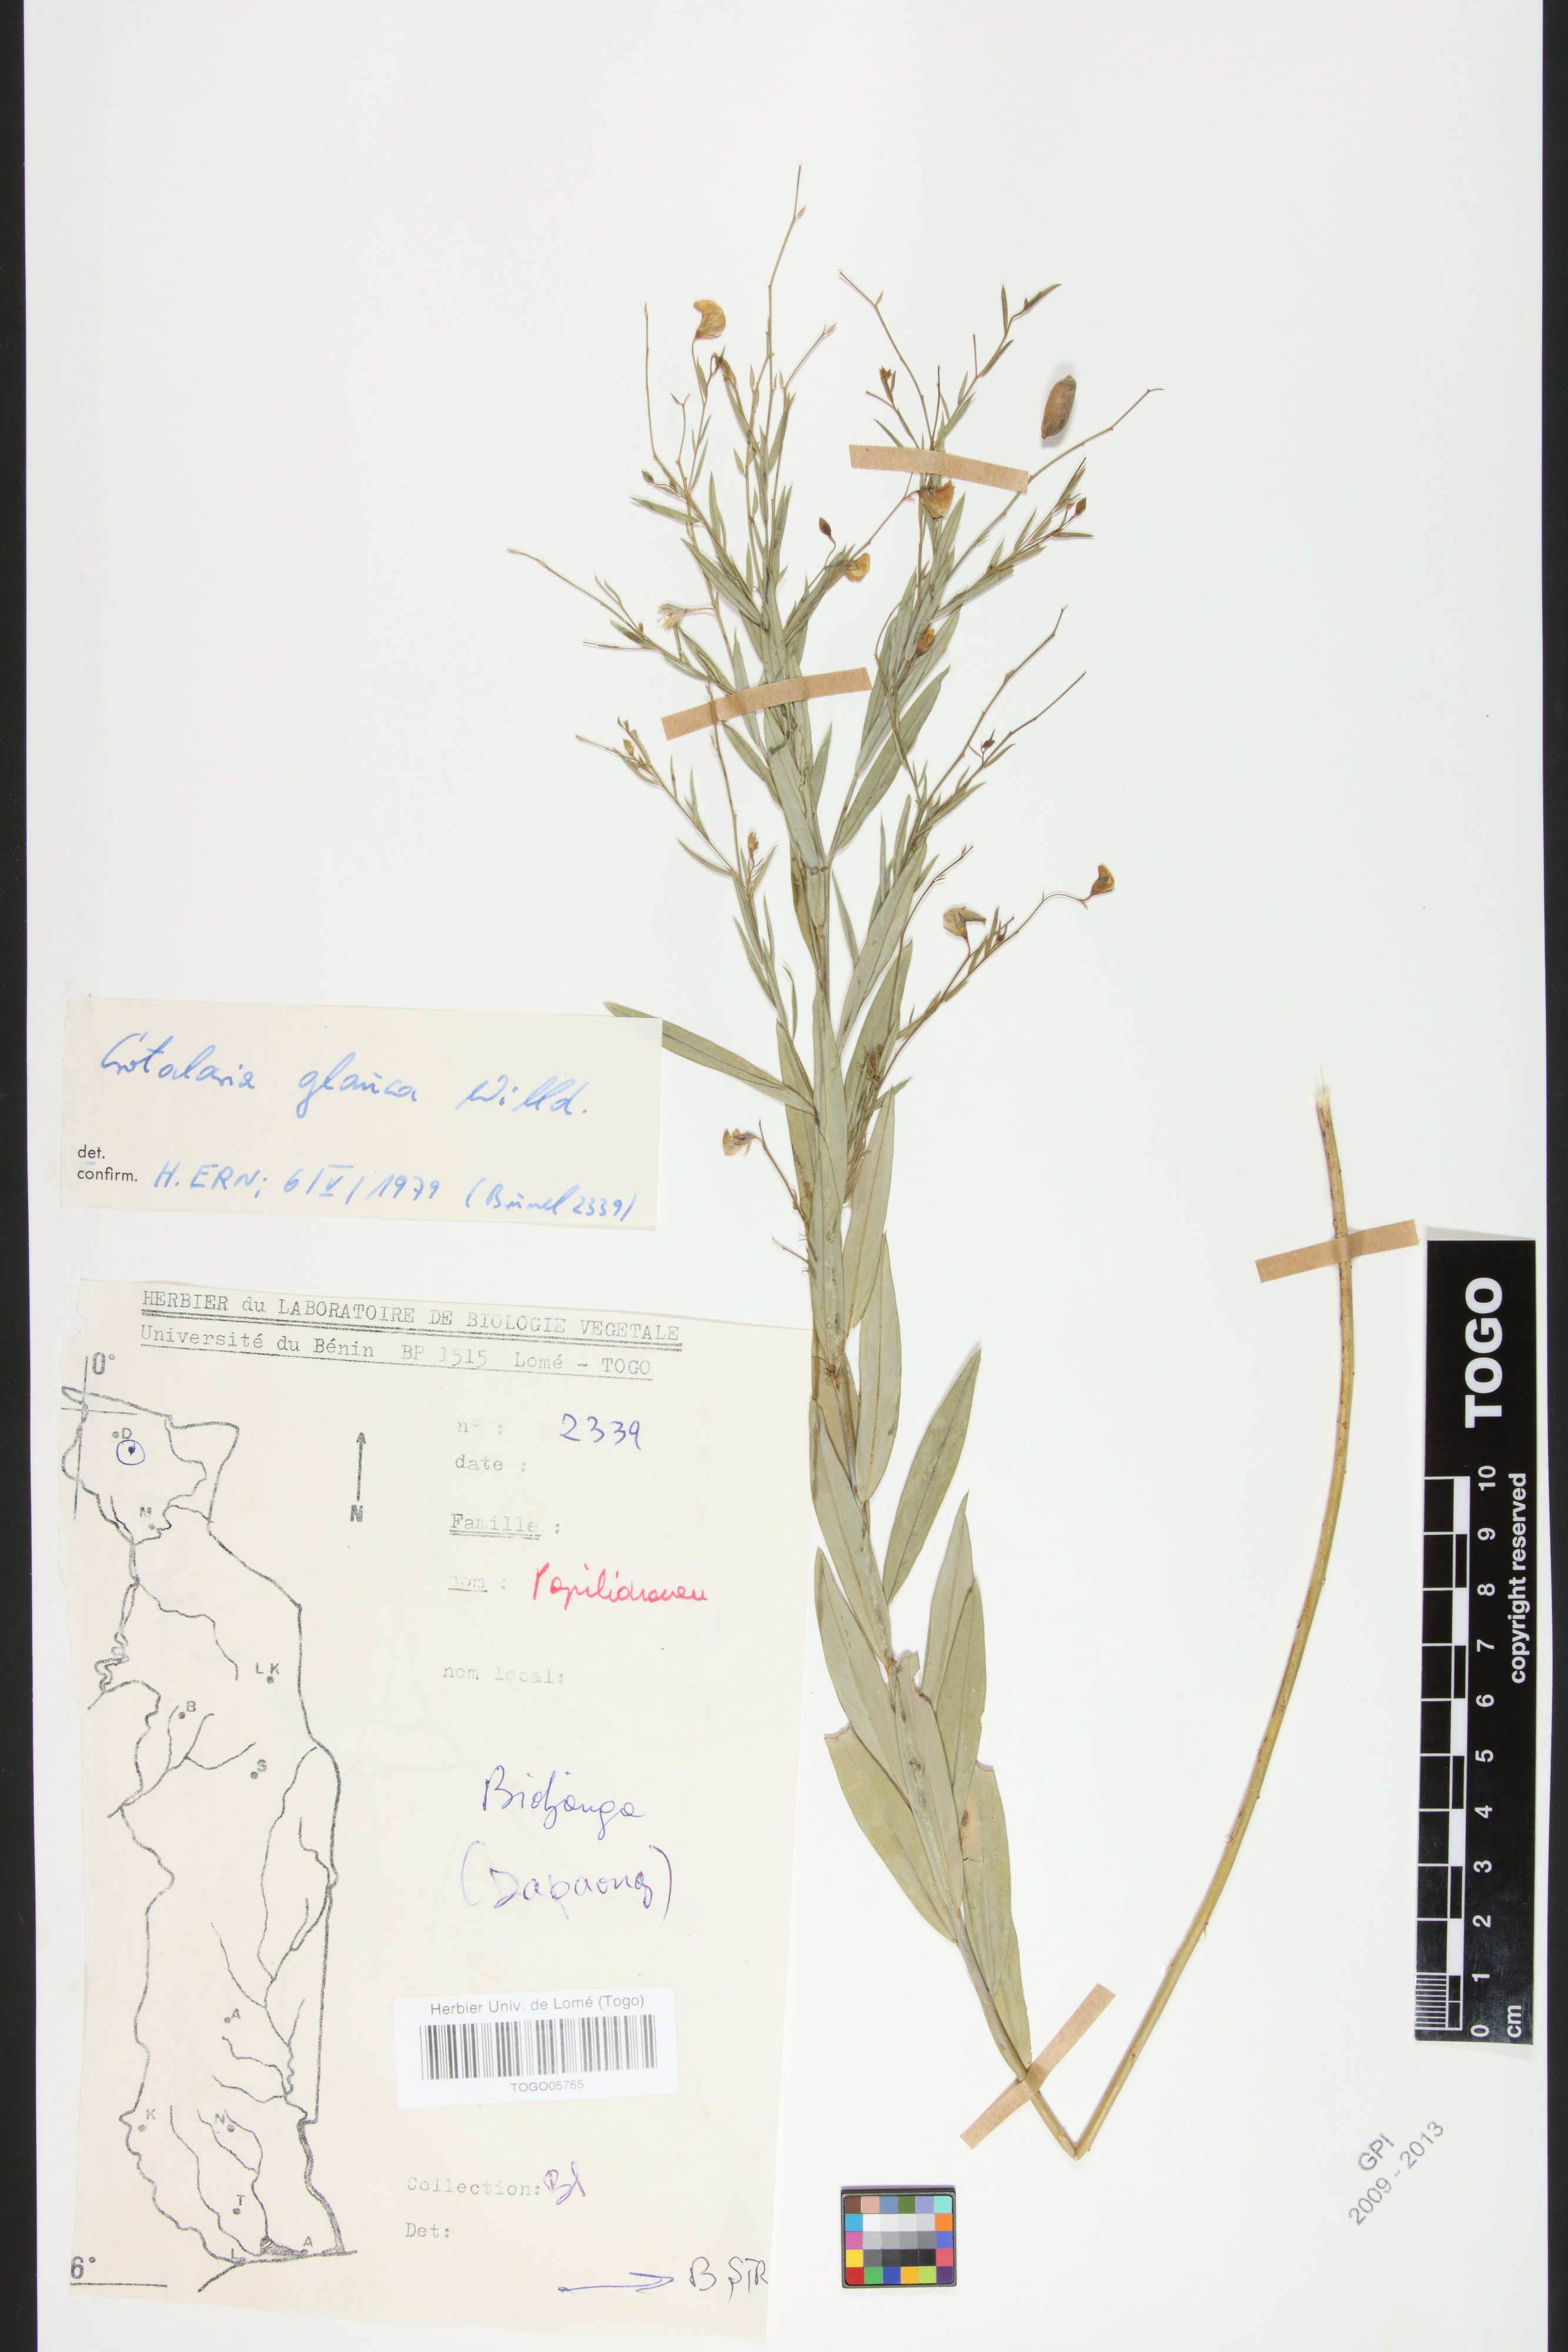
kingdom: Plantae
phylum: Tracheophyta
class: Magnoliopsida
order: Fabales
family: Fabaceae
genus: Crotalaria
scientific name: Crotalaria glauca
